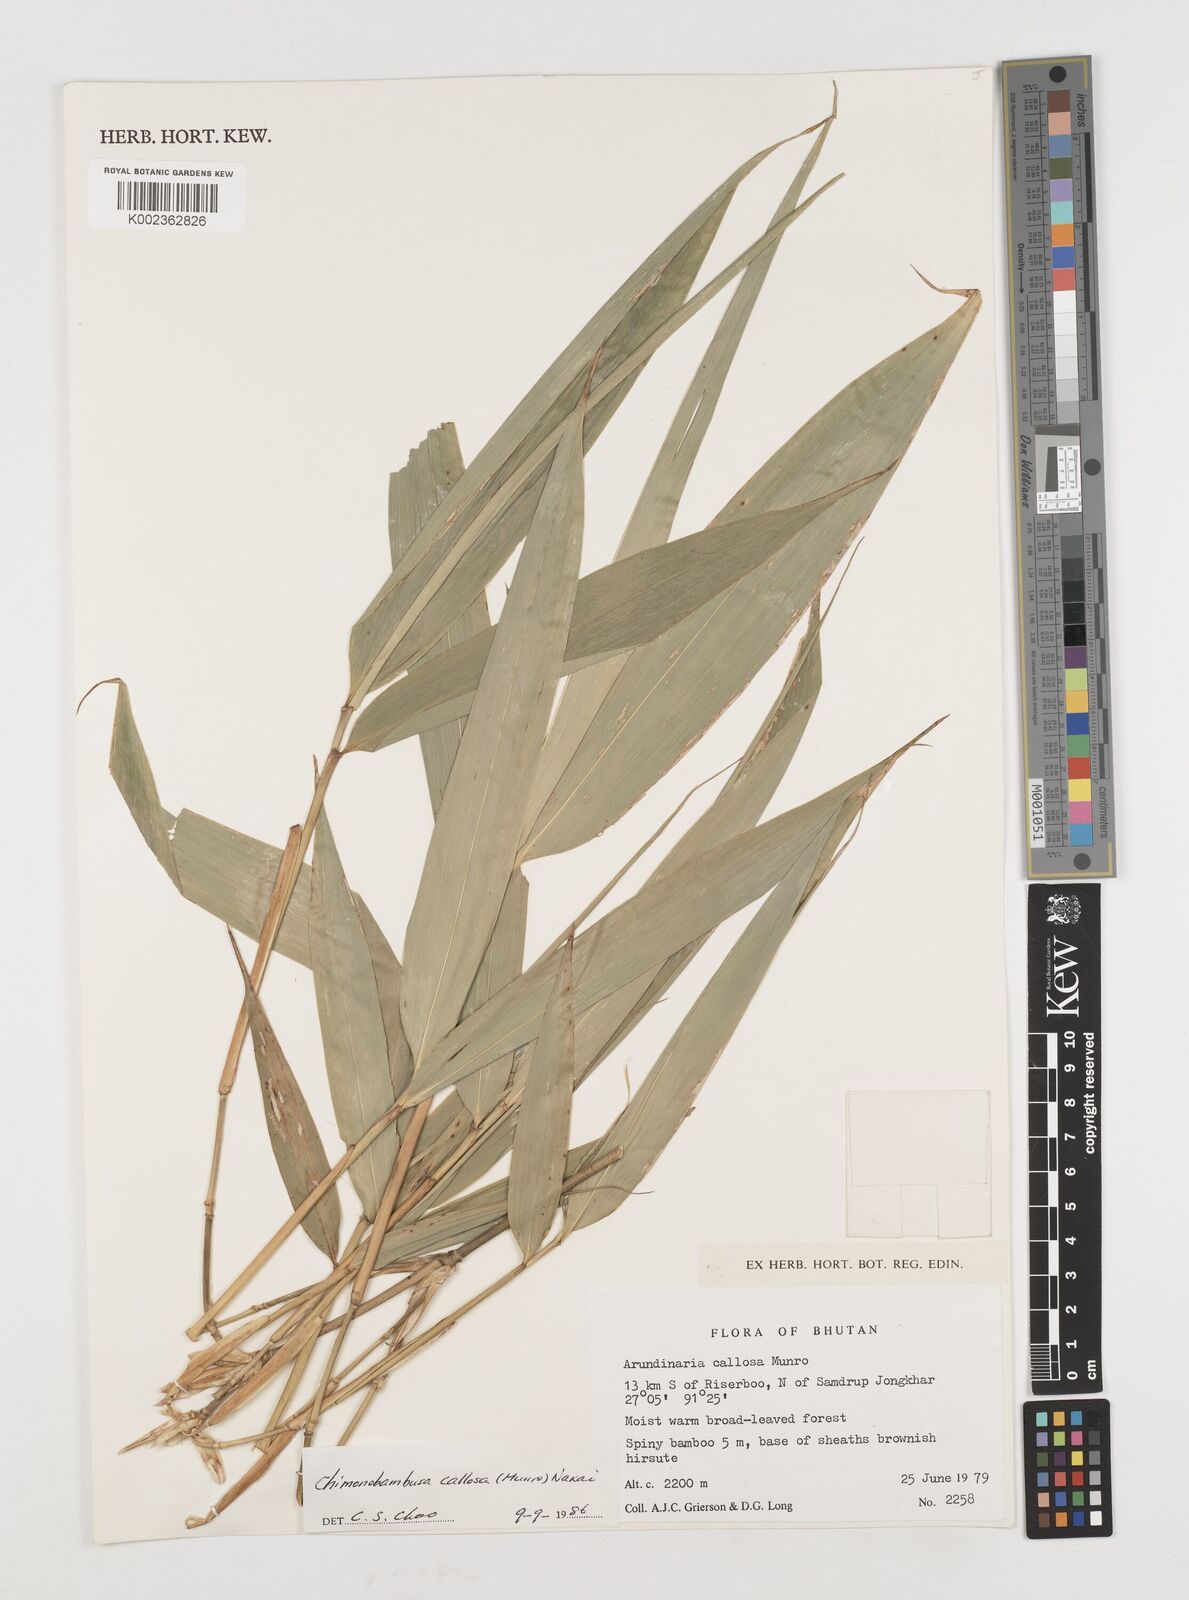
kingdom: Plantae
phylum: Tracheophyta
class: Liliopsida
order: Poales
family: Poaceae
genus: Chimonobambusa
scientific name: Chimonobambusa
